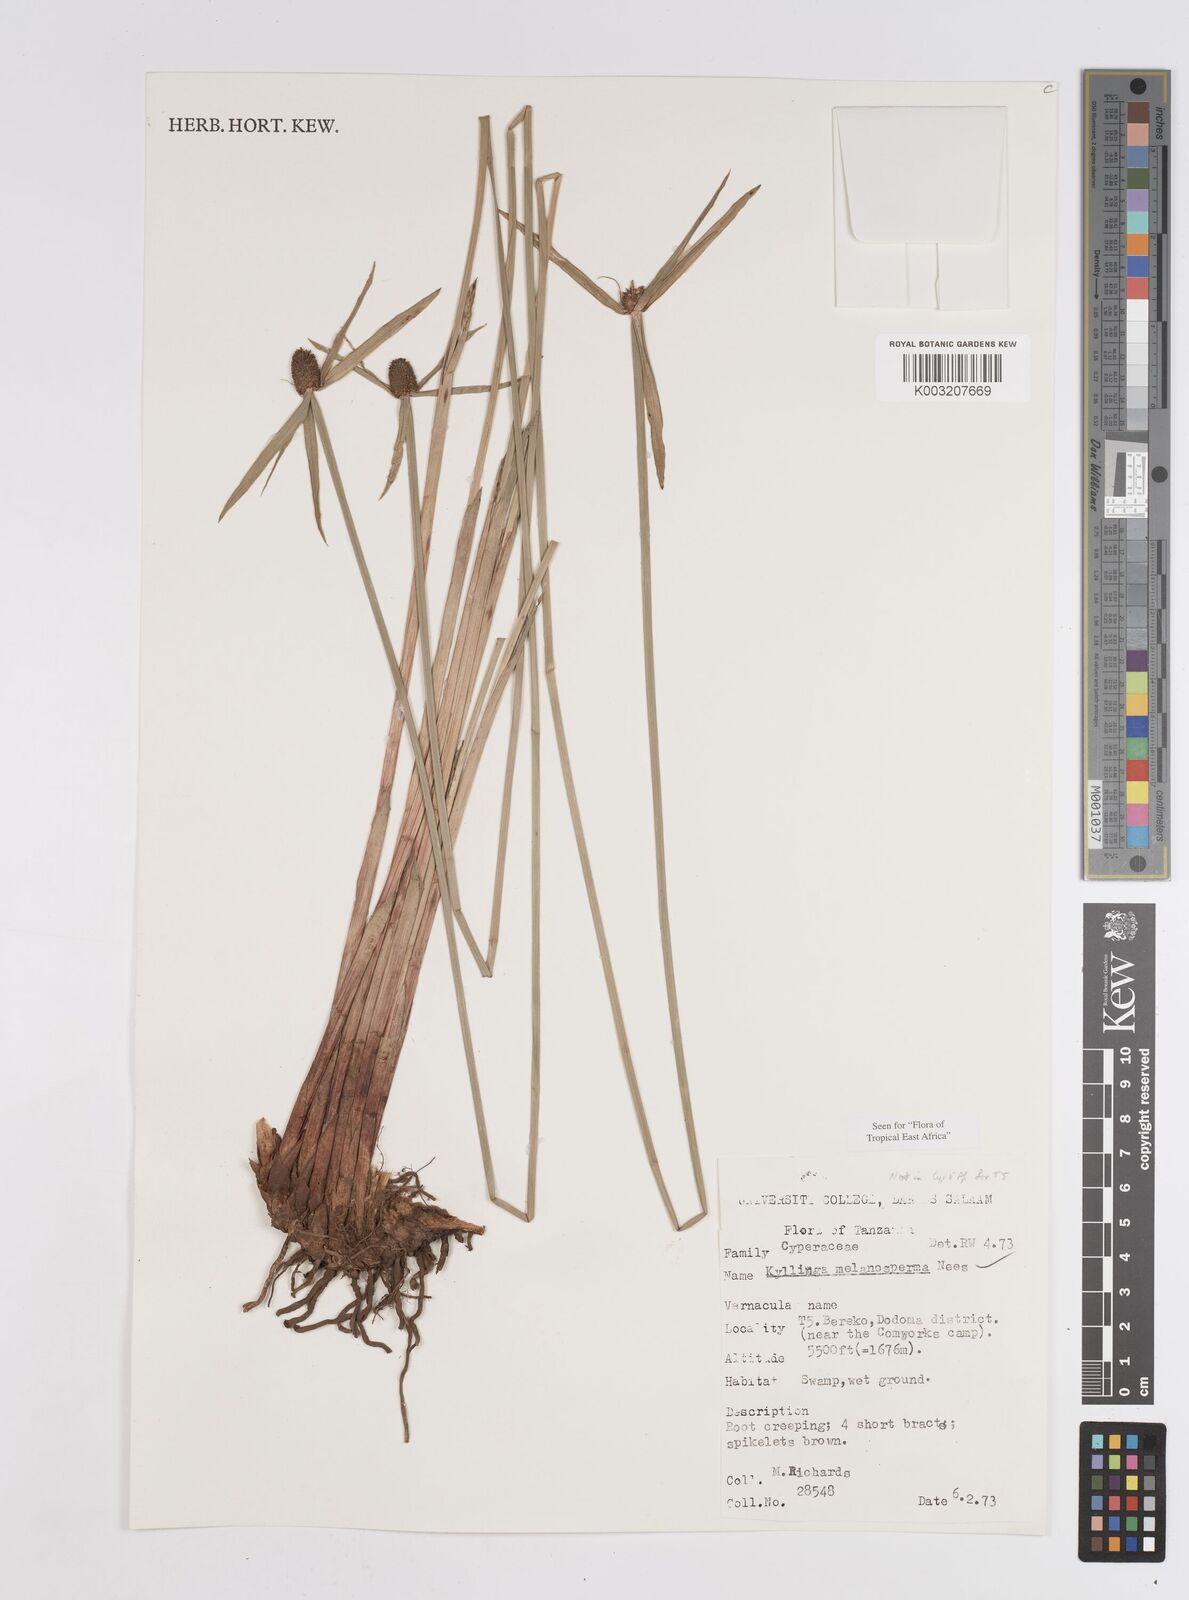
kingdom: Plantae
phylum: Tracheophyta
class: Liliopsida
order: Poales
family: Cyperaceae
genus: Cyperus
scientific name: Cyperus melanospermus
